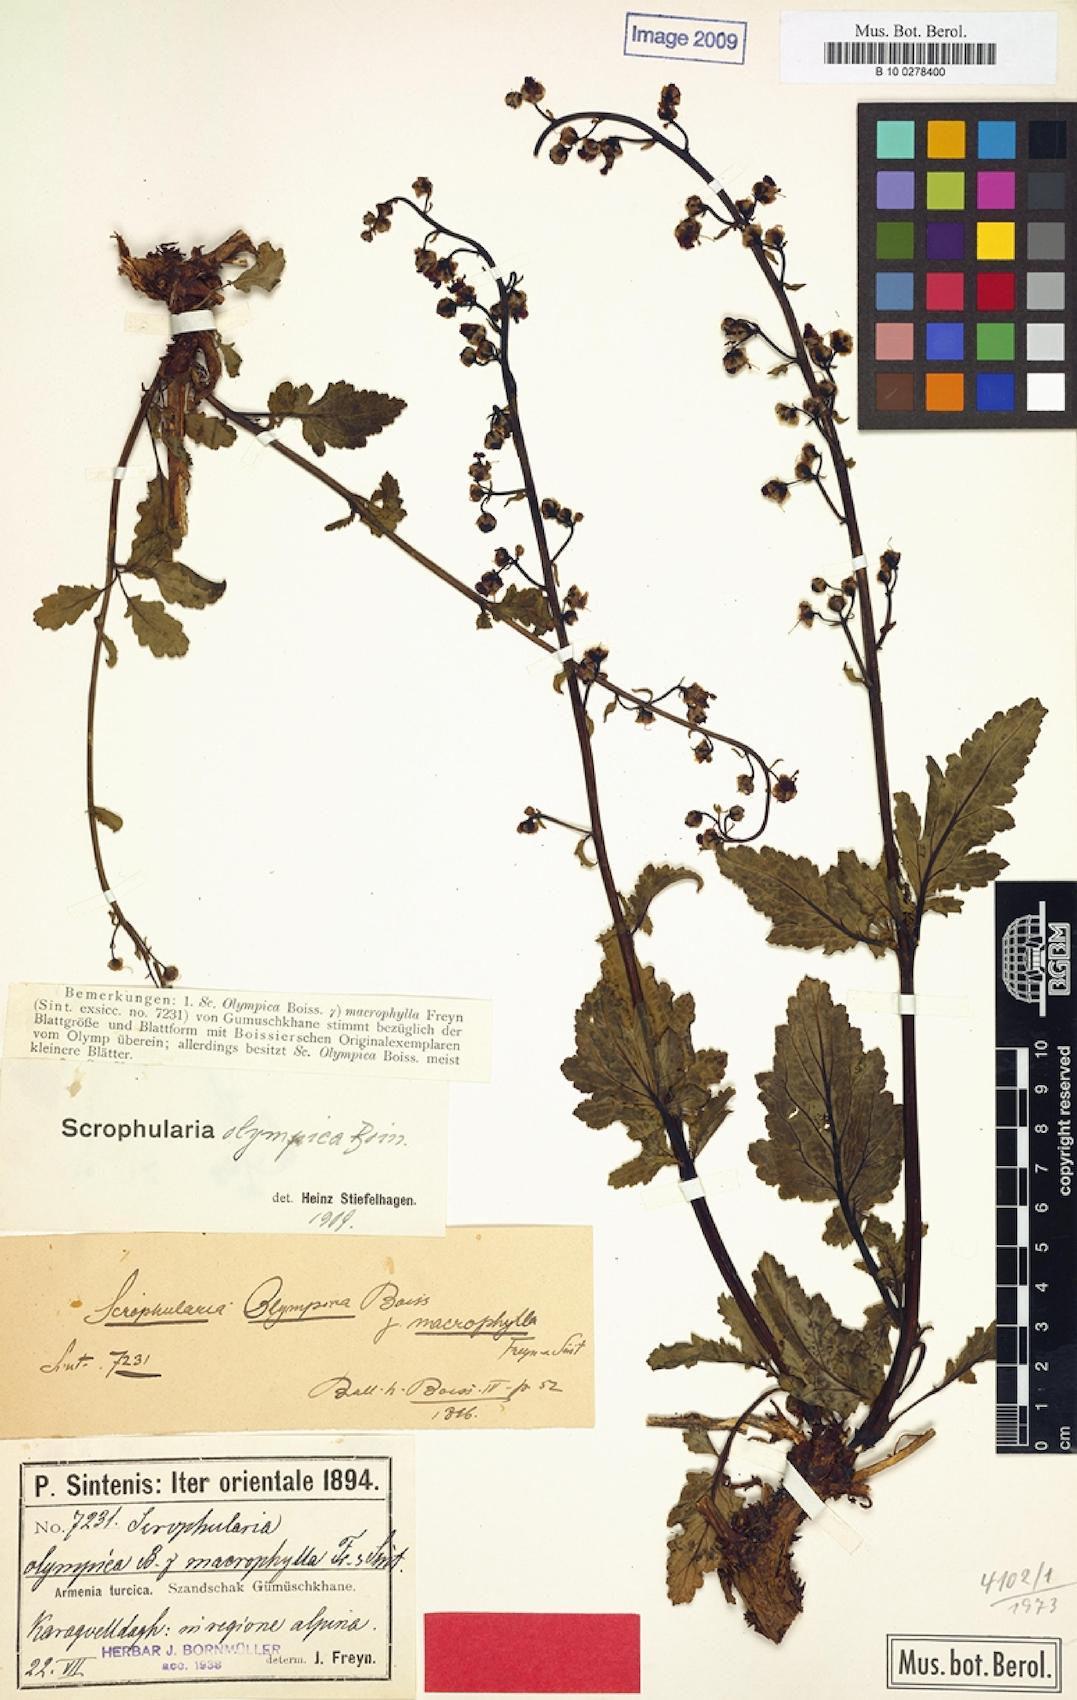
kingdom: Plantae
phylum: Tracheophyta
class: Magnoliopsida
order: Lamiales
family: Scrophulariaceae
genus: Scrophularia
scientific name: Scrophularia olympica
